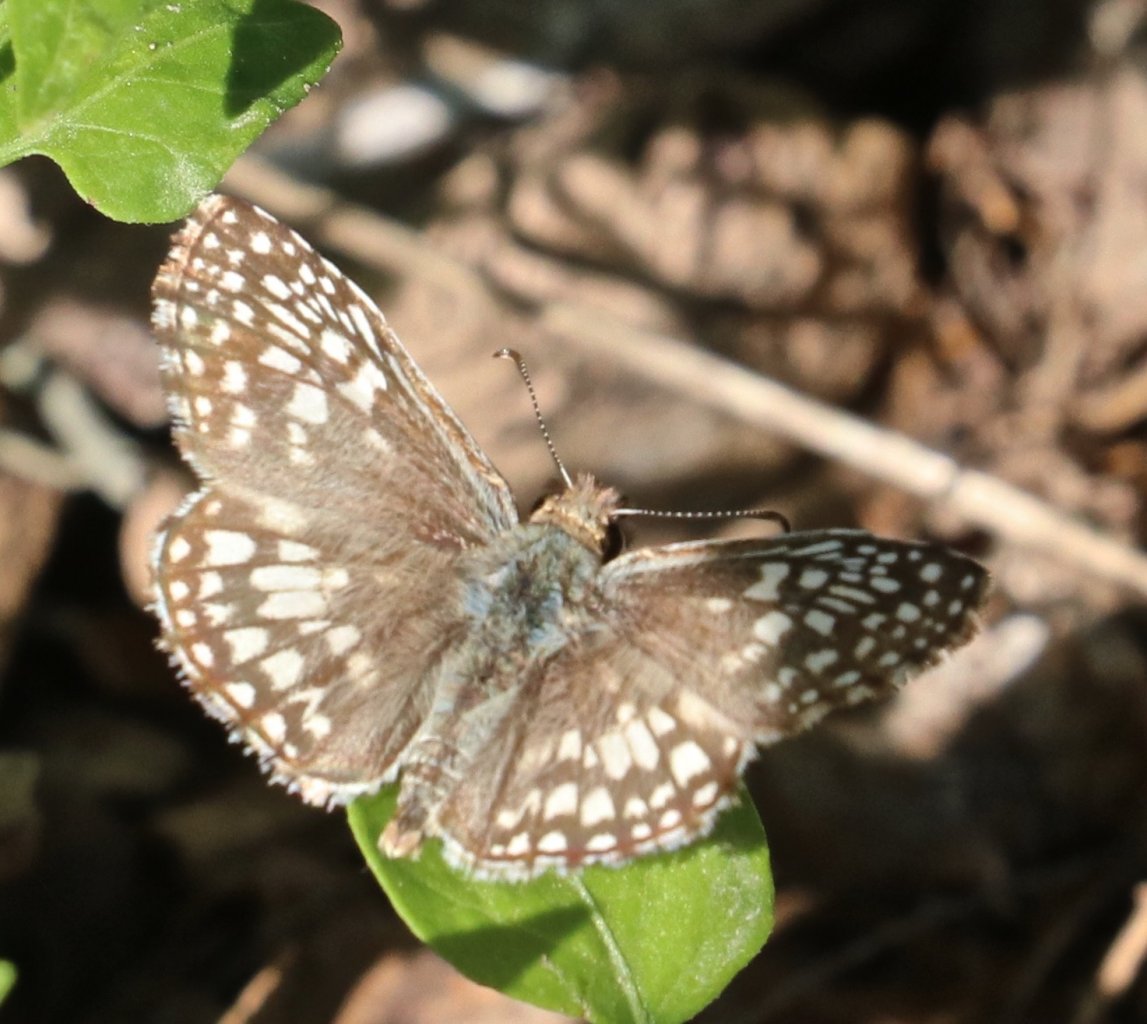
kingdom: Animalia
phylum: Arthropoda
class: Insecta
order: Lepidoptera
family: Hesperiidae
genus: Pyrgus
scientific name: Pyrgus oileus
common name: Tropical Checkered-Skipper
